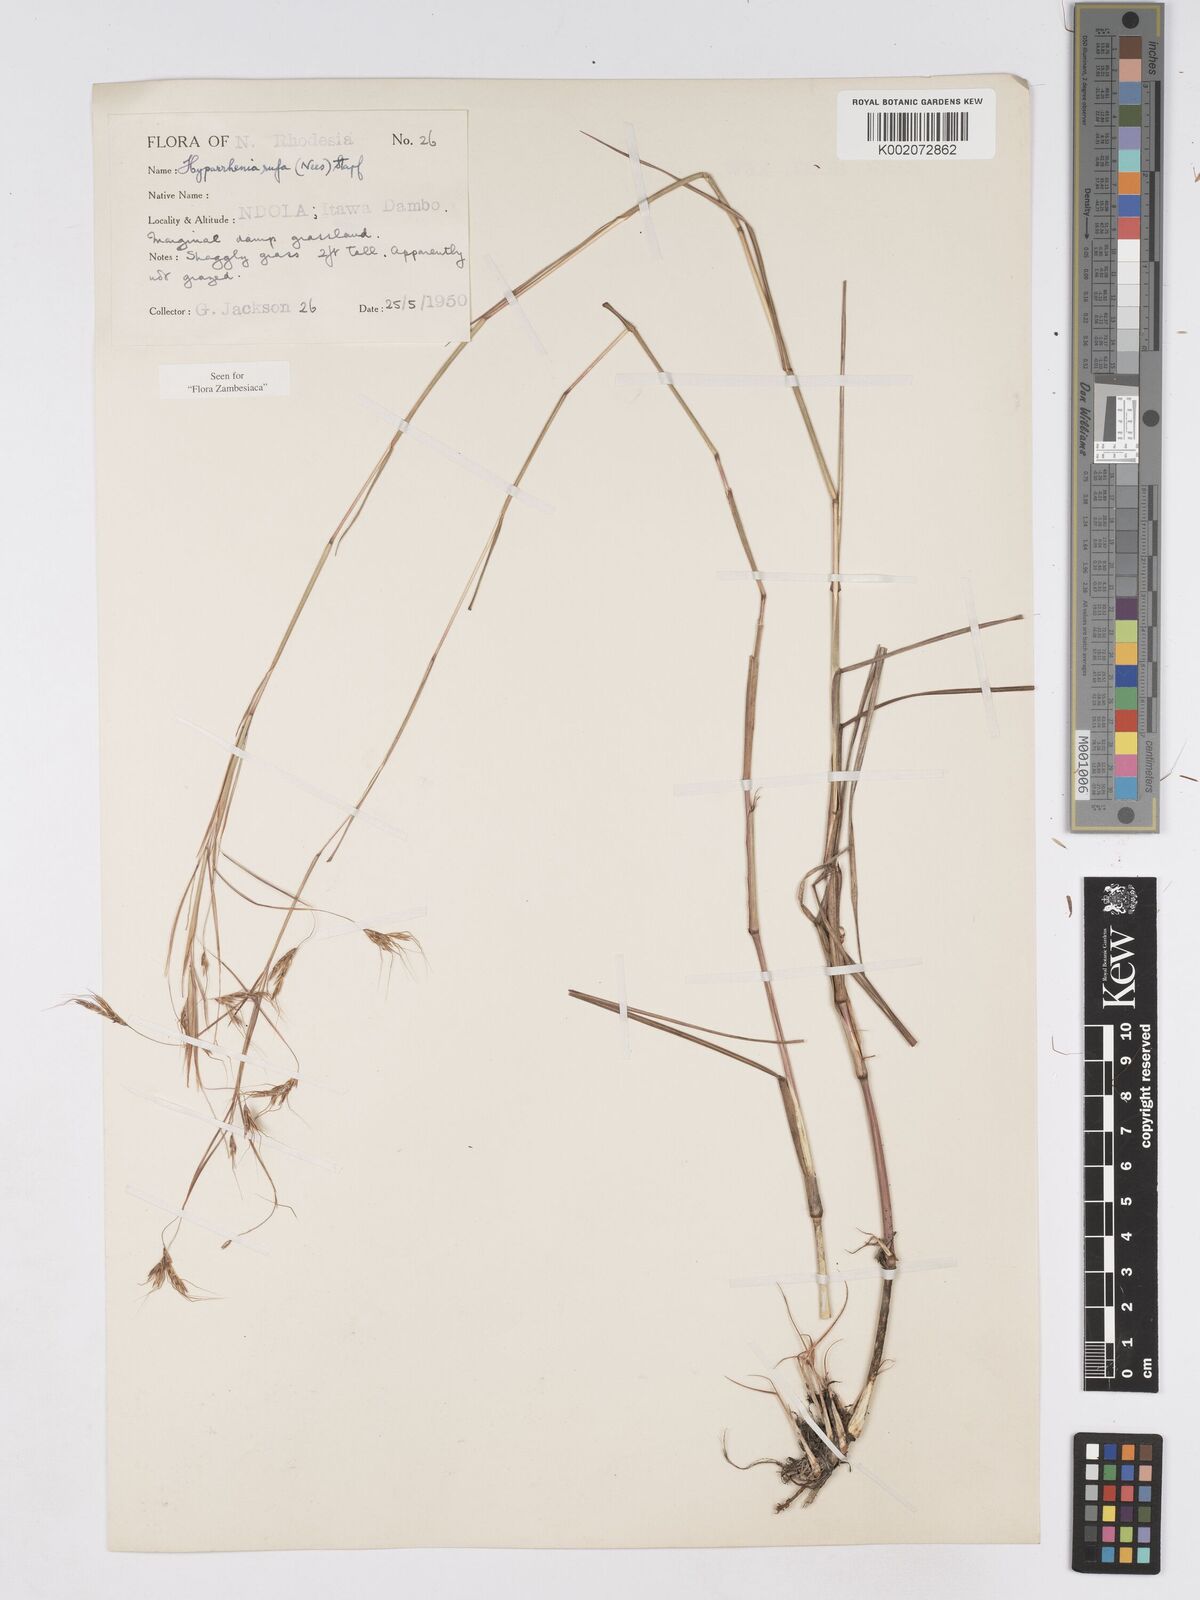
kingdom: Plantae
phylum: Tracheophyta
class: Liliopsida
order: Poales
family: Poaceae
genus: Hyparrhenia
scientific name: Hyparrhenia rufa
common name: Jaraguagrass
